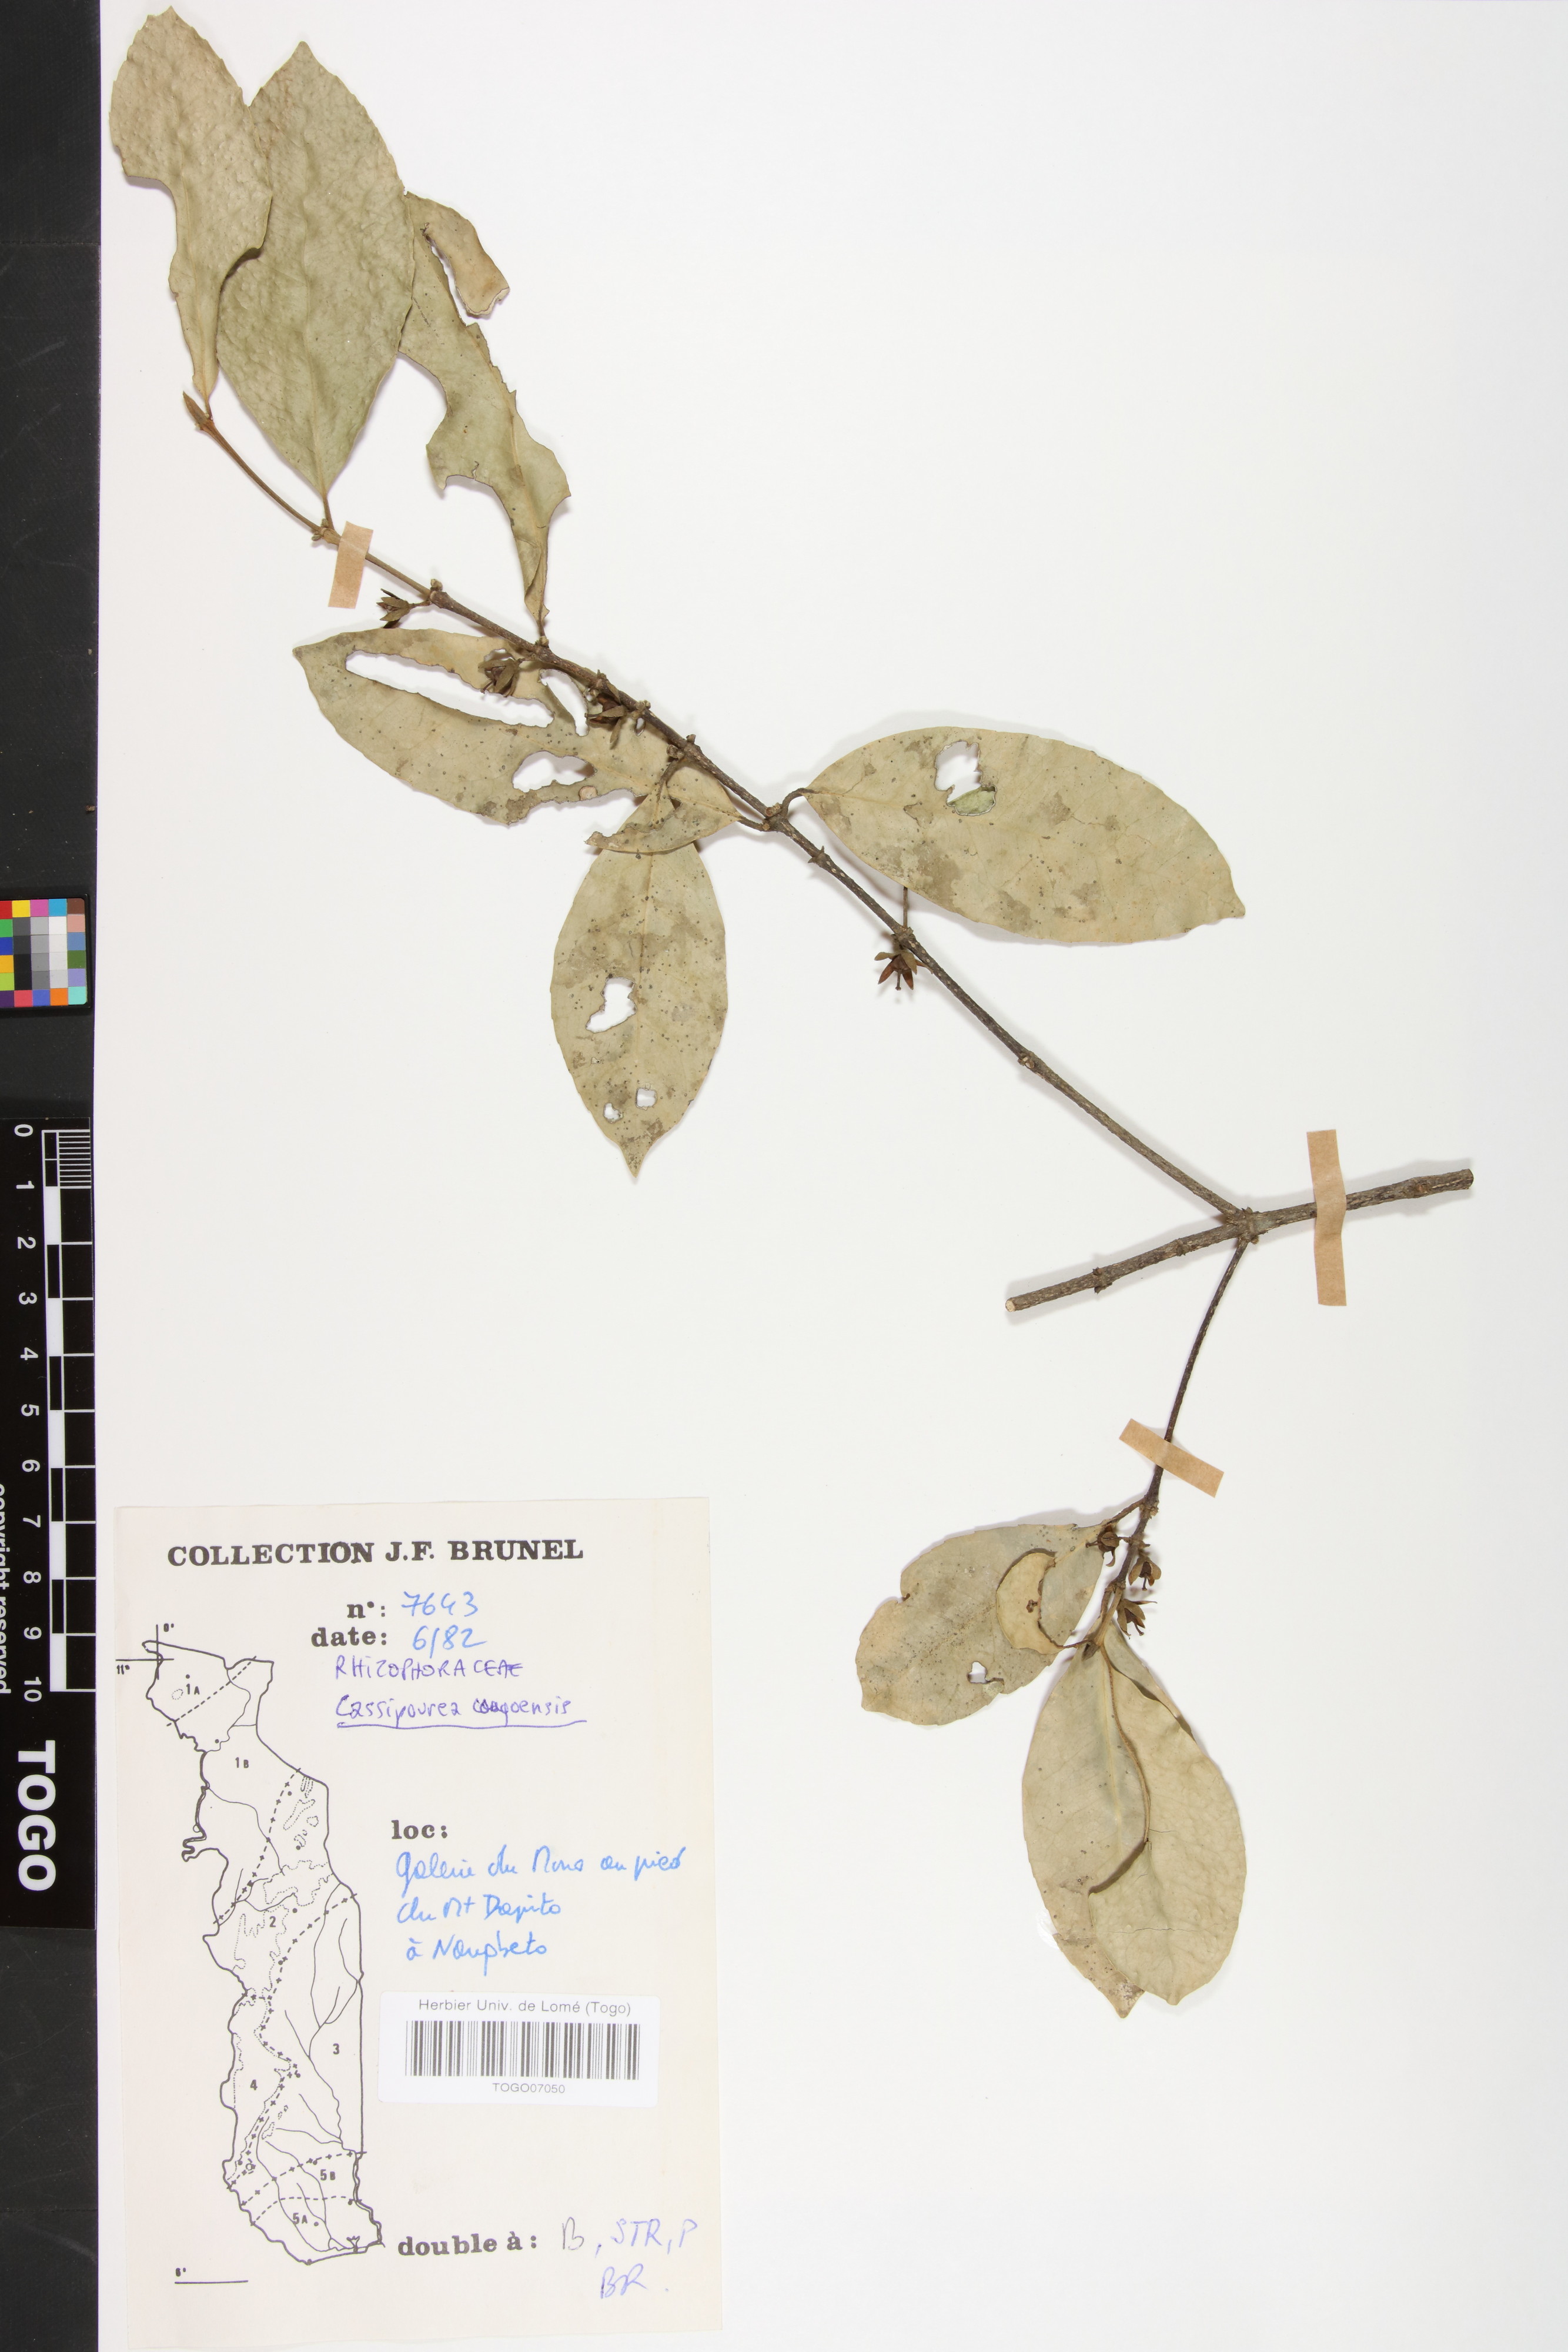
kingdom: Plantae
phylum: Tracheophyta
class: Magnoliopsida
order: Malpighiales
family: Rhizophoraceae
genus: Cassipourea
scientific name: Cassipourea congoensis
